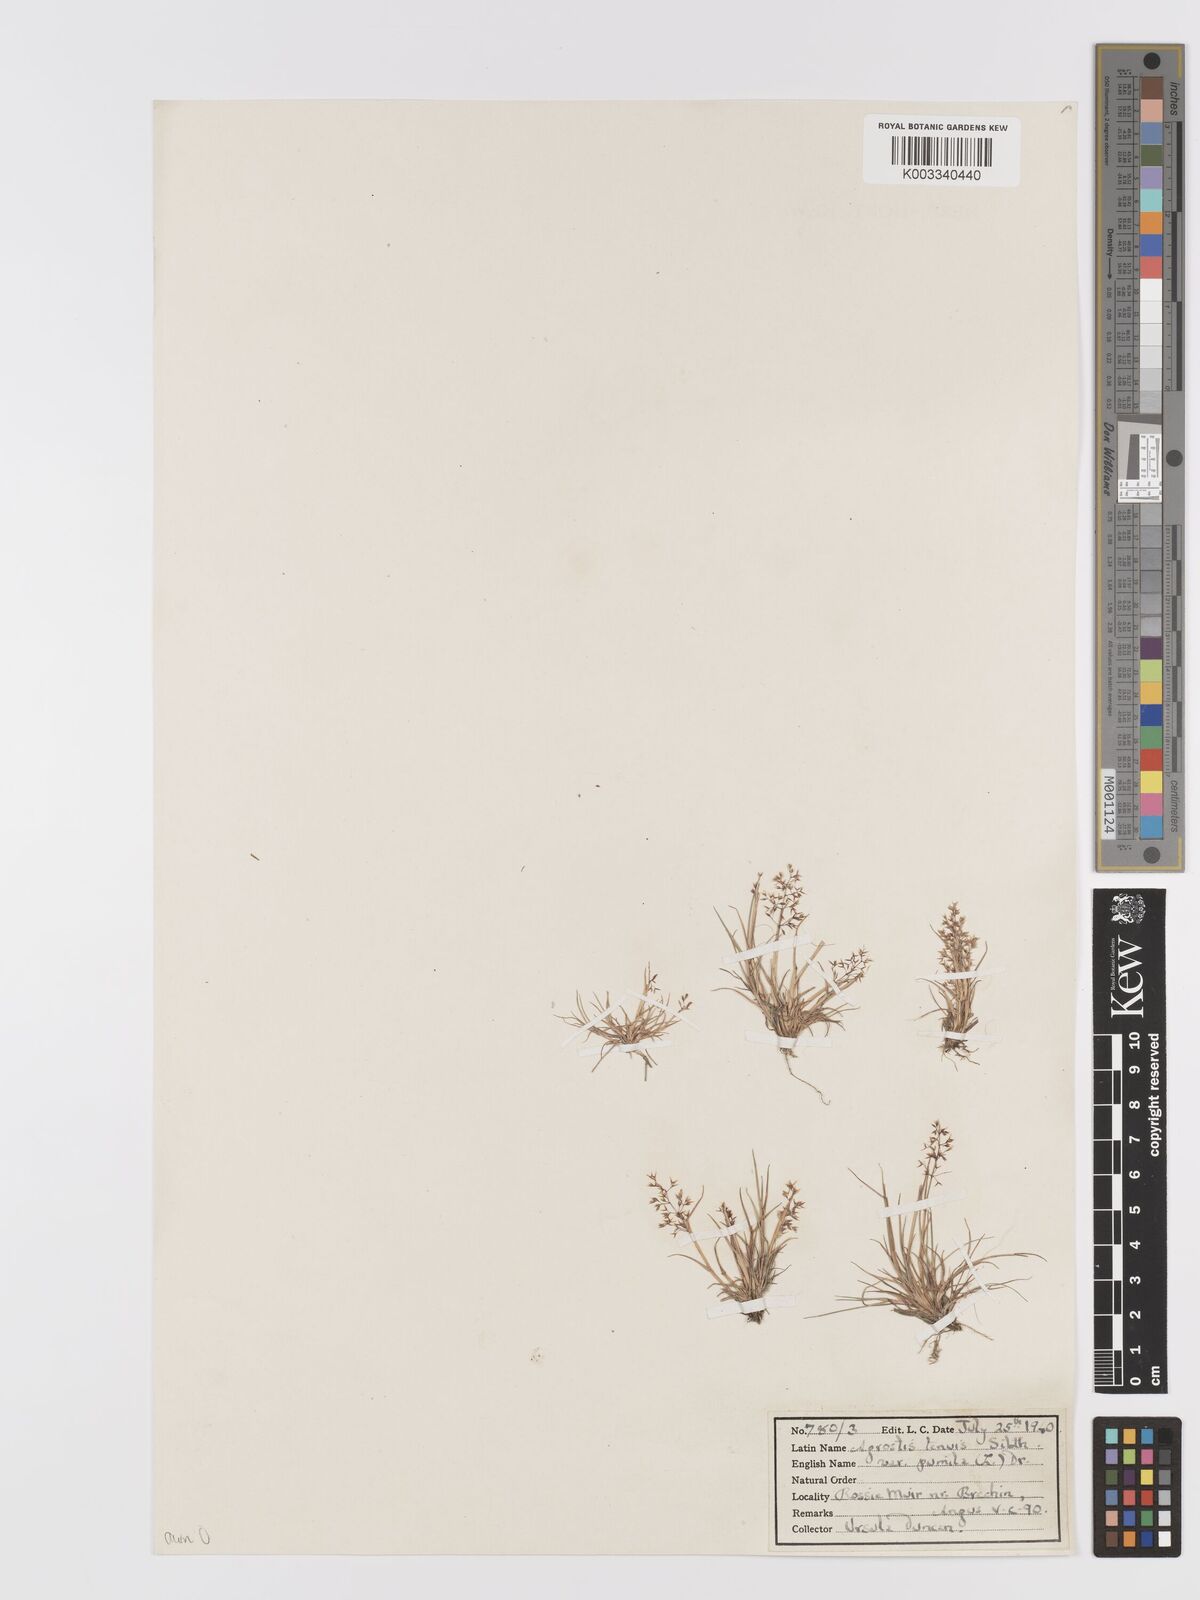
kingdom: Plantae
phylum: Tracheophyta
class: Liliopsida
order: Poales
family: Poaceae
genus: Agrostis
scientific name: Agrostis capillaris
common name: Colonial bentgrass
